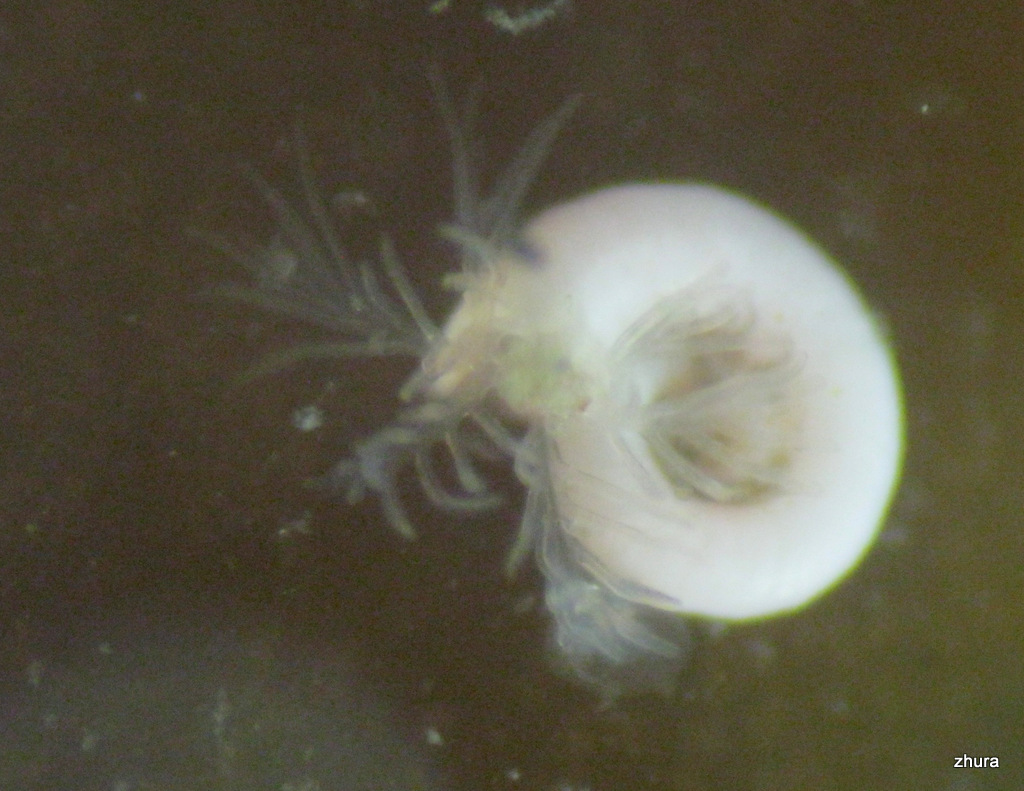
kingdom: Animalia
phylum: Annelida
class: Polychaeta
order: Sabellida
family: Serpulidae
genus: Circeis
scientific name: Circeis armoricana
